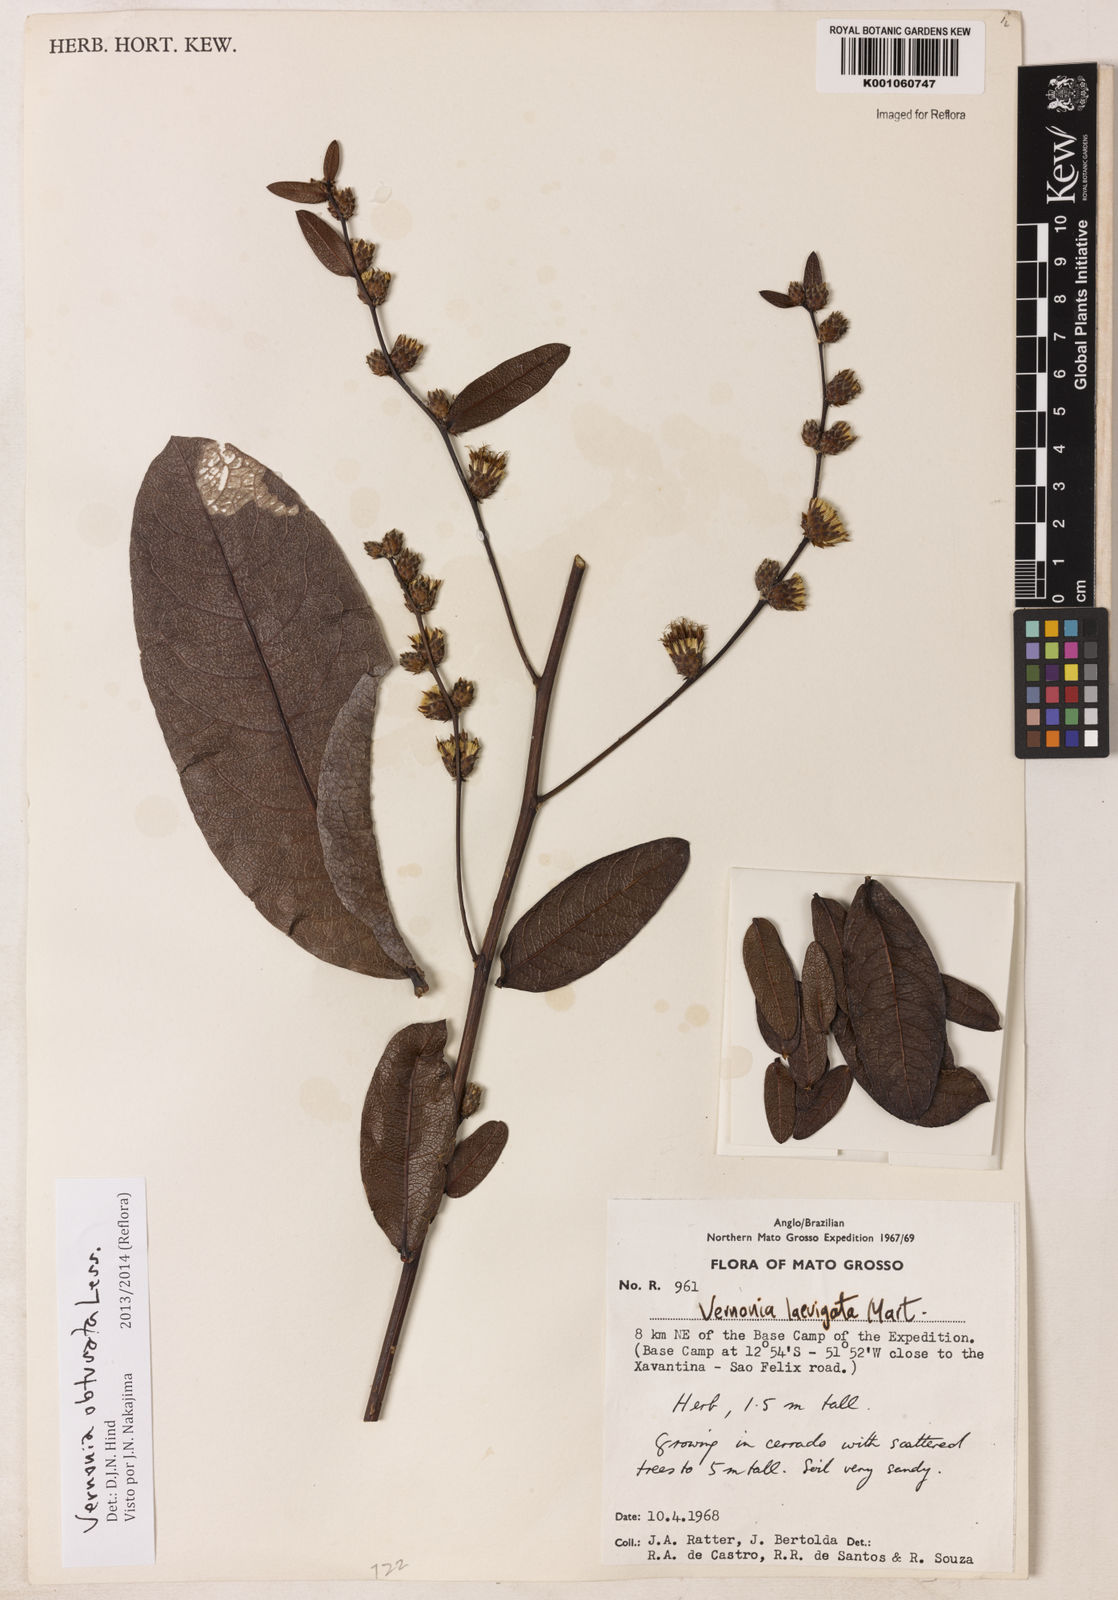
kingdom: Plantae
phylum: Tracheophyta
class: Magnoliopsida
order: Asterales
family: Asteraceae
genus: Lessingianthus
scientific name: Lessingianthus obtusatus
